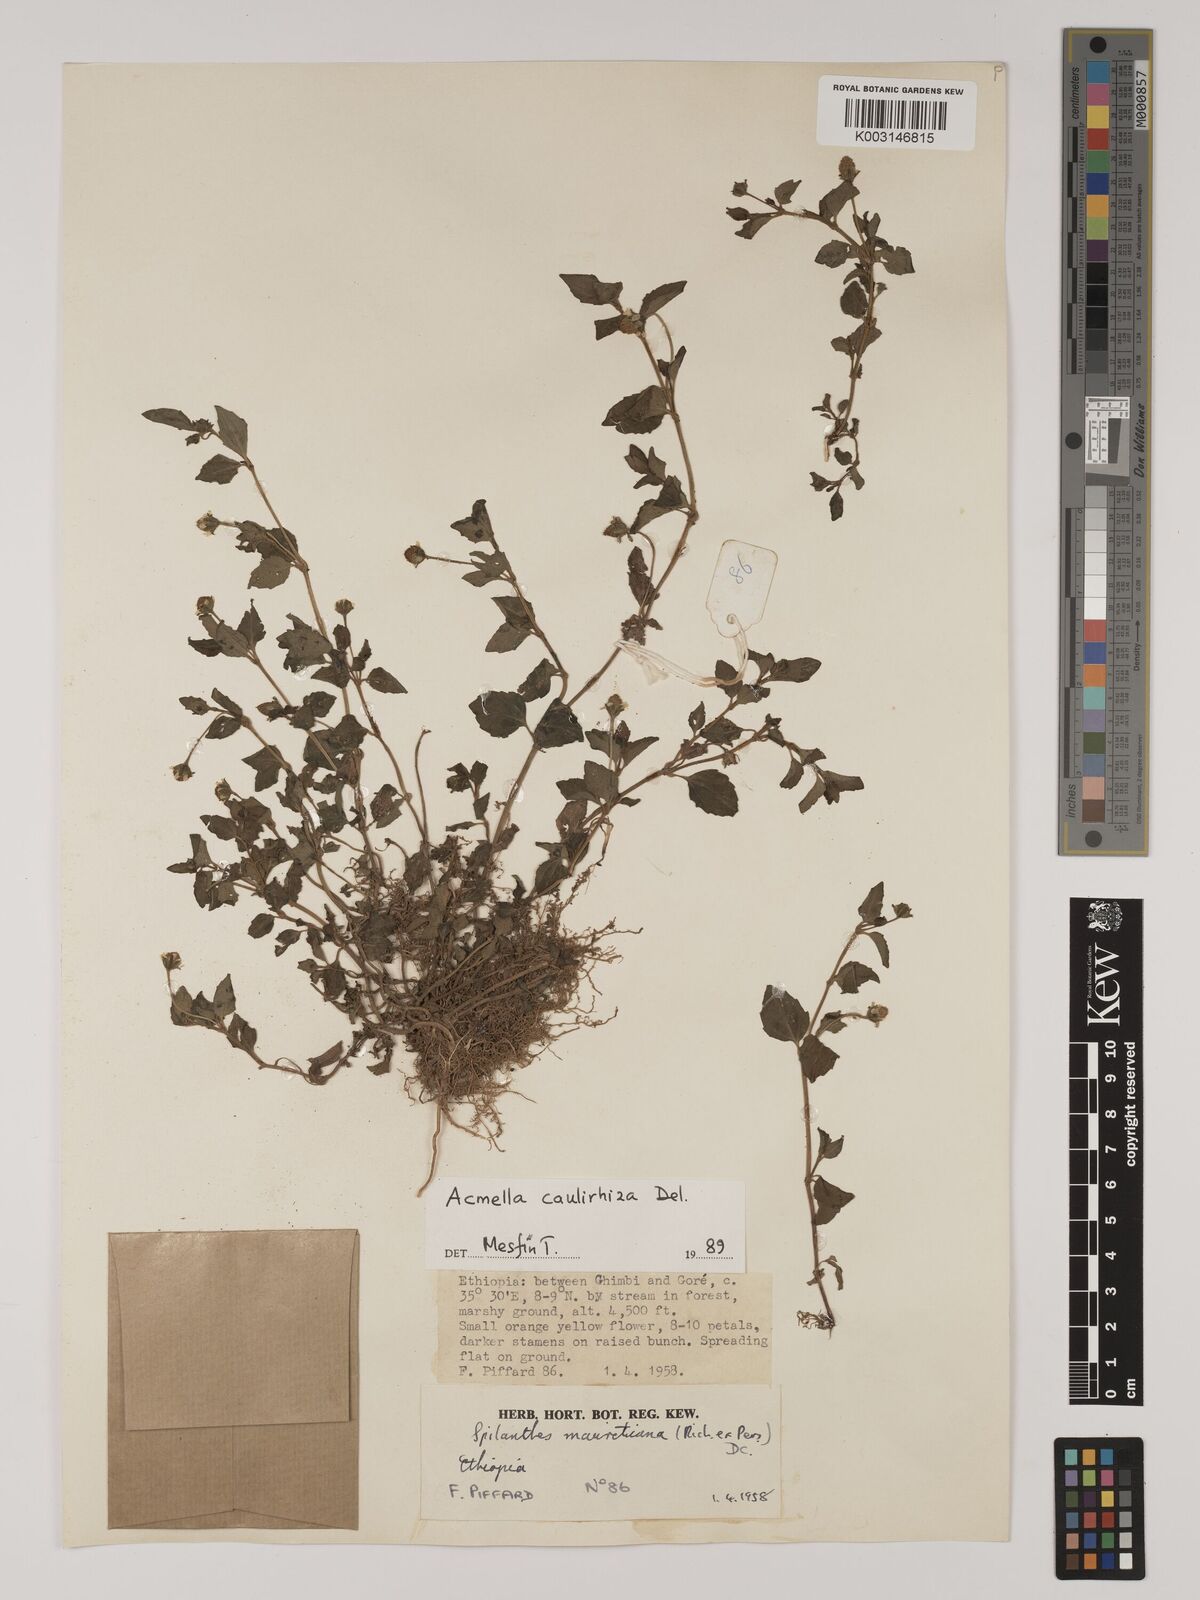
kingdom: Plantae
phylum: Tracheophyta
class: Magnoliopsida
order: Asterales
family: Asteraceae
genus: Blainvillea
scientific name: Blainvillea acmella
